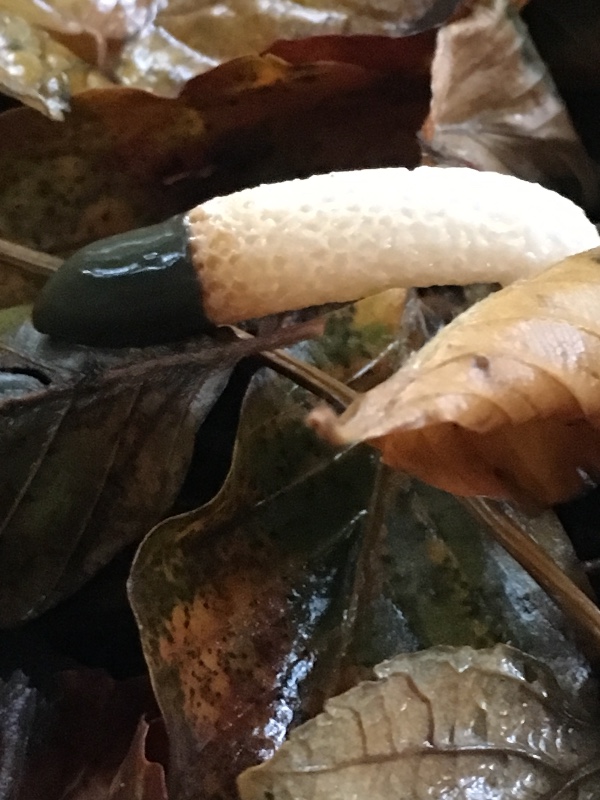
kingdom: Fungi
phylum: Basidiomycota
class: Agaricomycetes
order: Phallales
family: Phallaceae
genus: Mutinus
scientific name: Mutinus caninus
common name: hunde-stinksvamp
